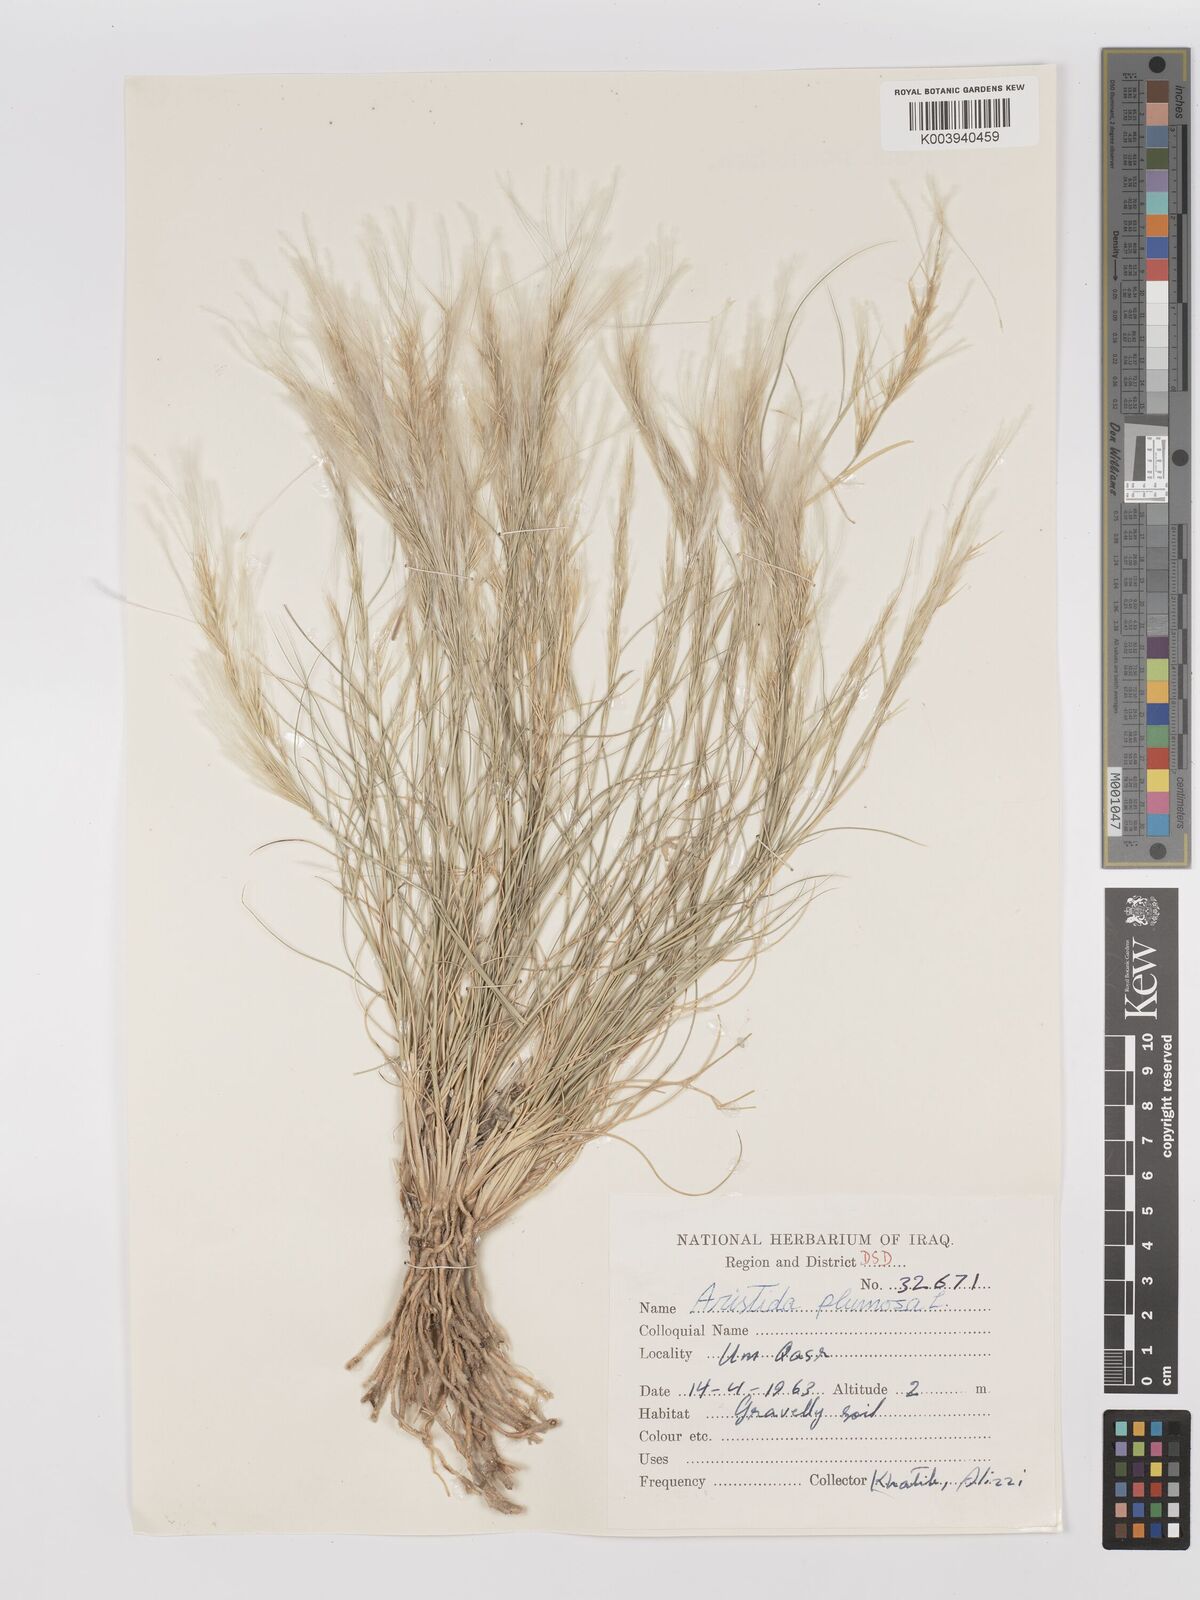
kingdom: Plantae
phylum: Tracheophyta
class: Liliopsida
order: Poales
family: Poaceae
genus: Stipagrostis
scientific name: Stipagrostis plumosa
